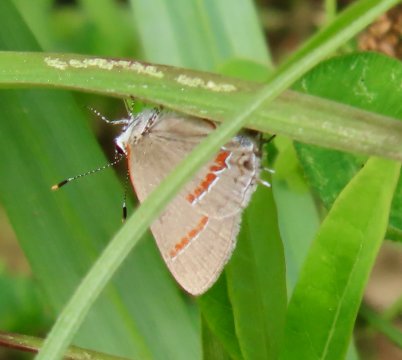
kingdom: Animalia
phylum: Arthropoda
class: Insecta
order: Lepidoptera
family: Lycaenidae
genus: Calycopis
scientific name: Calycopis cecrops
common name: Red-banded Hairstreak
